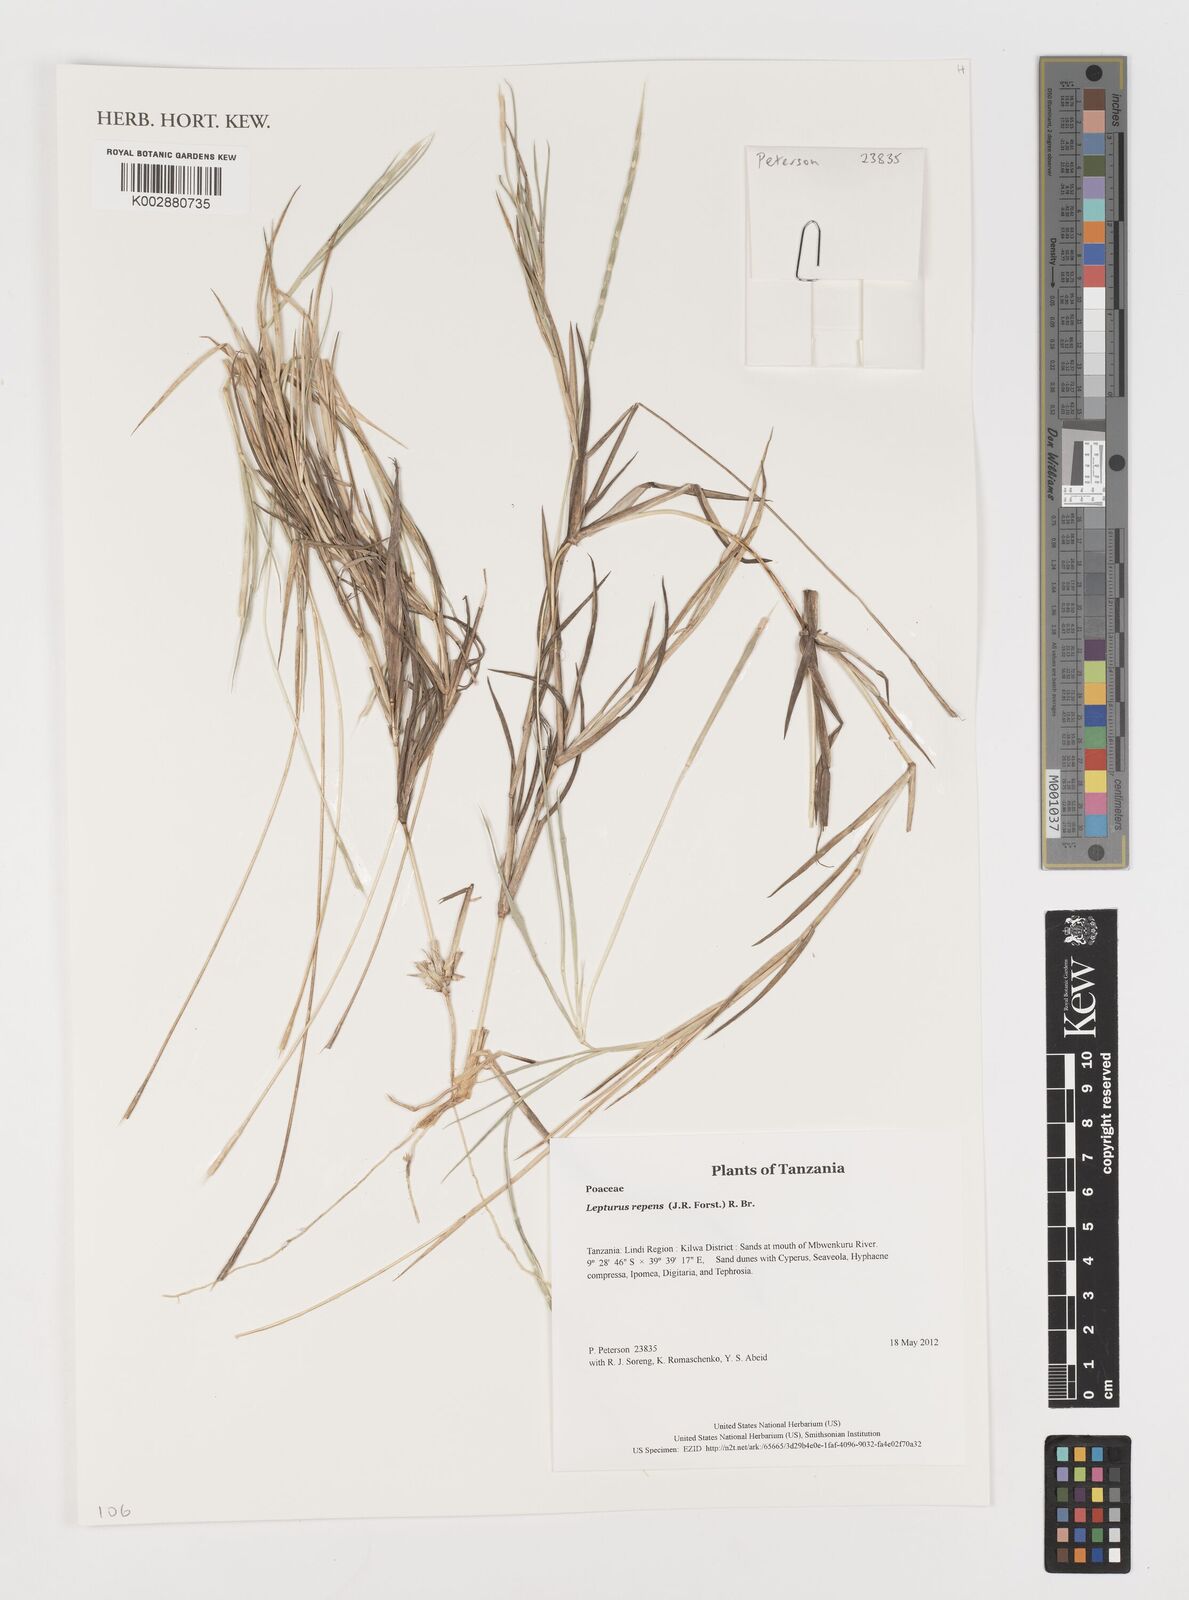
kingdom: Plantae
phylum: Tracheophyta
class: Liliopsida
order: Poales
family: Poaceae
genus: Lepturus
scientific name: Lepturus repens
